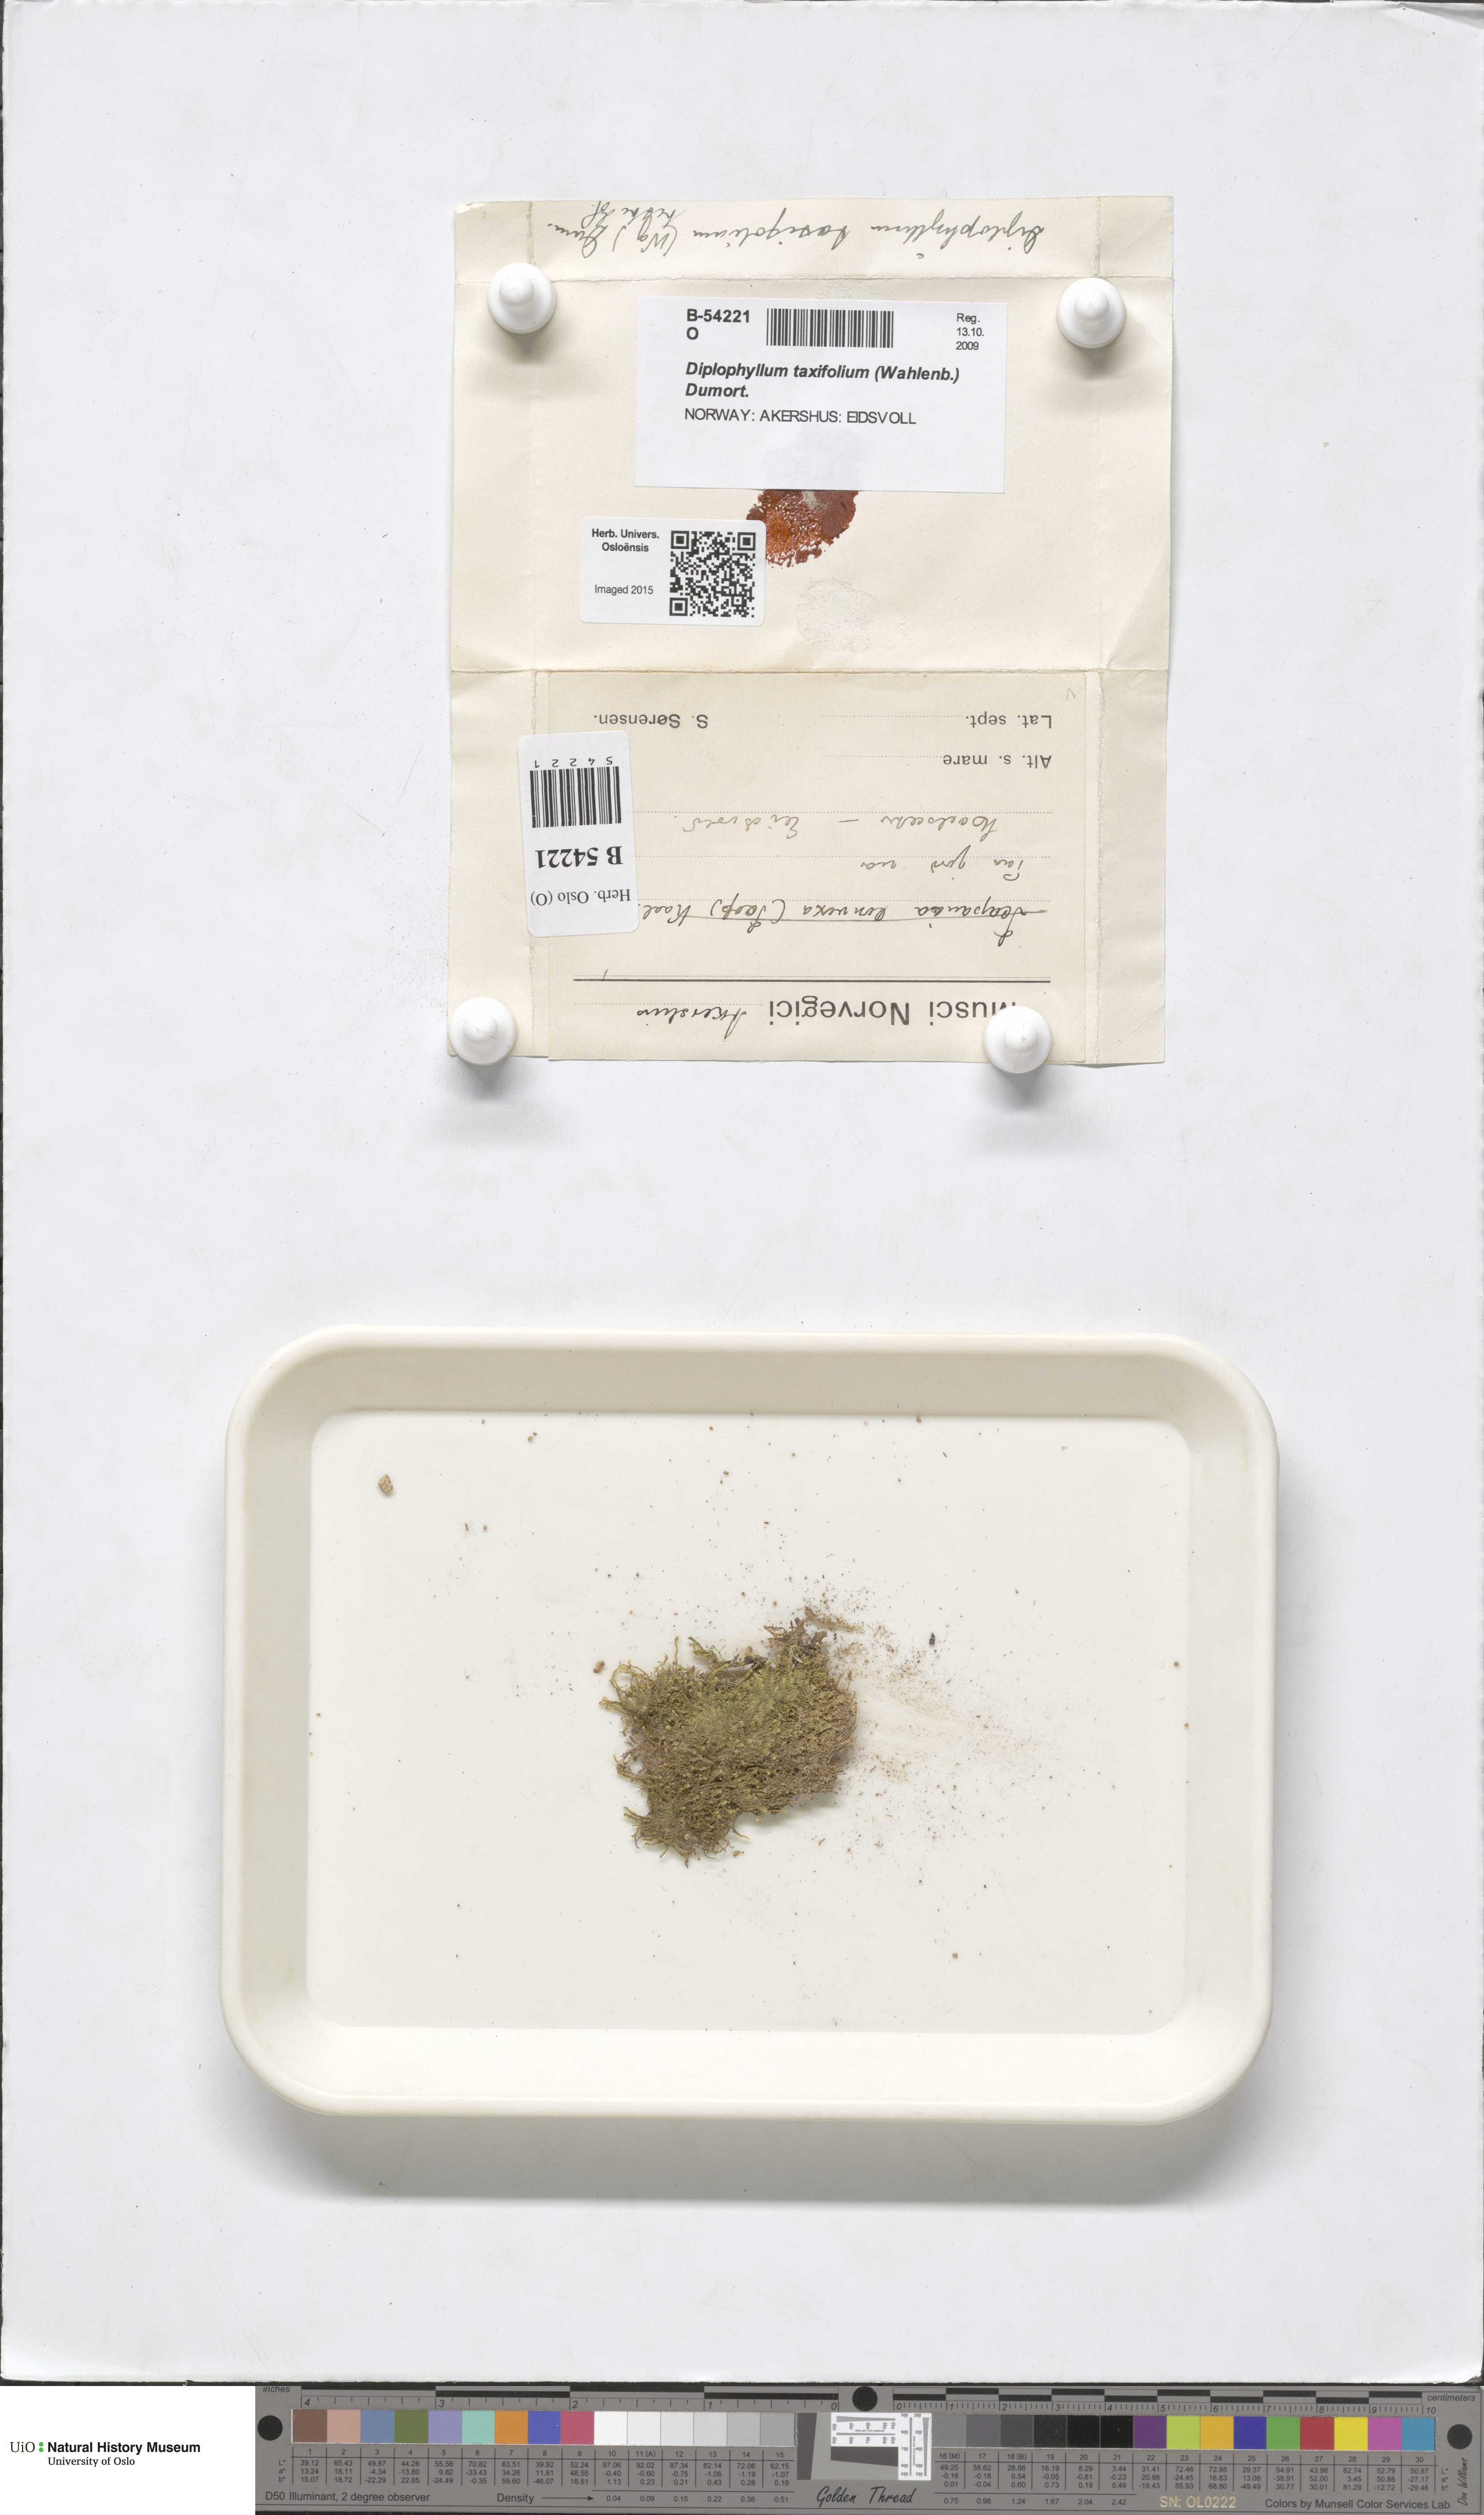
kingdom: Plantae
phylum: Marchantiophyta
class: Jungermanniopsida
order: Jungermanniales
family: Scapaniaceae
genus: Diplophyllum
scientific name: Diplophyllum taxifolium
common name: Alpine earwort
